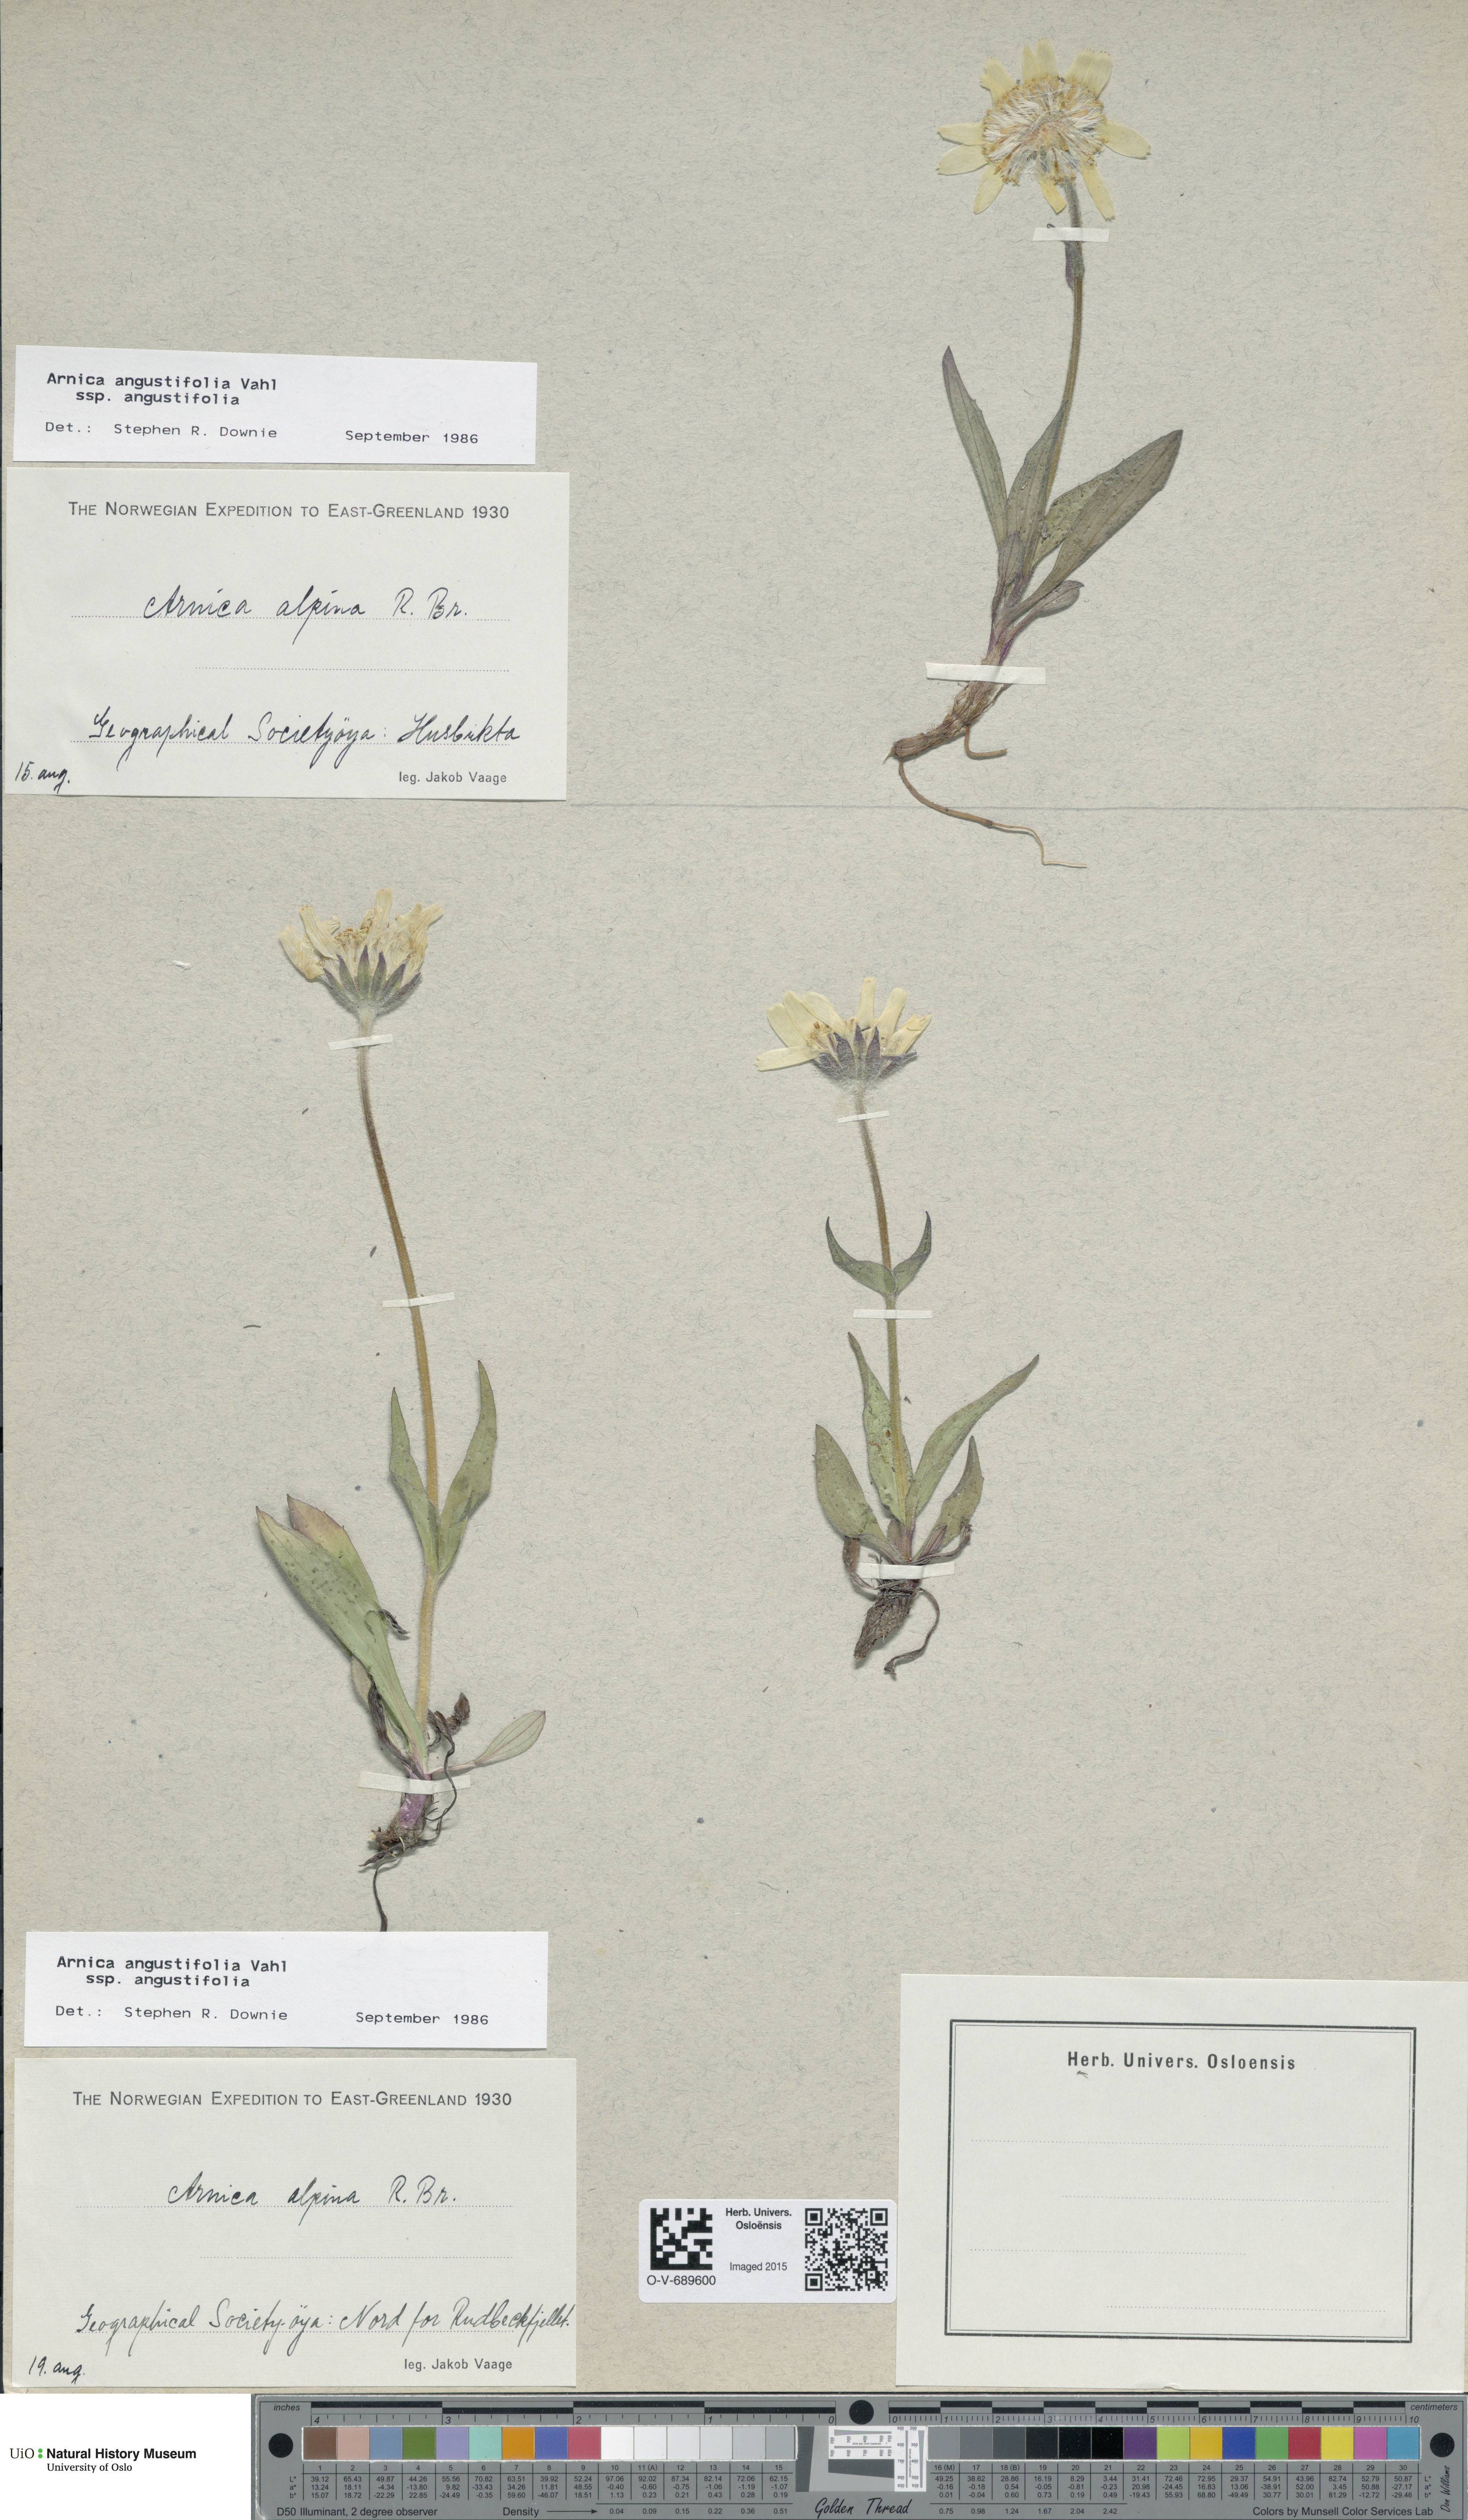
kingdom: Plantae
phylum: Tracheophyta
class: Magnoliopsida
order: Asterales
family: Asteraceae
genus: Arnica
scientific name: Arnica angustifolia
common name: Arctic arnica
